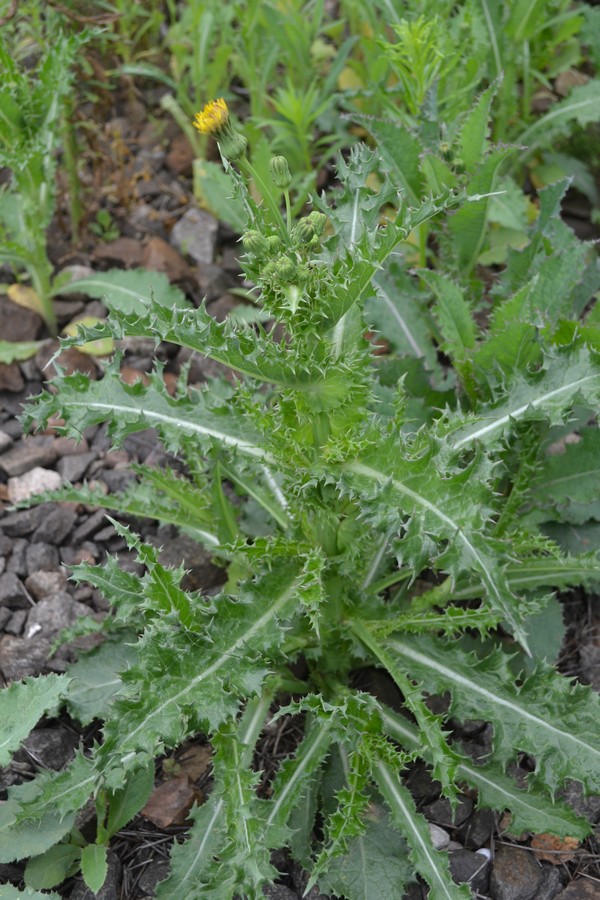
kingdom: Plantae
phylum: Tracheophyta
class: Magnoliopsida
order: Asterales
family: Asteraceae
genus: Sonchus
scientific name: Sonchus asper
